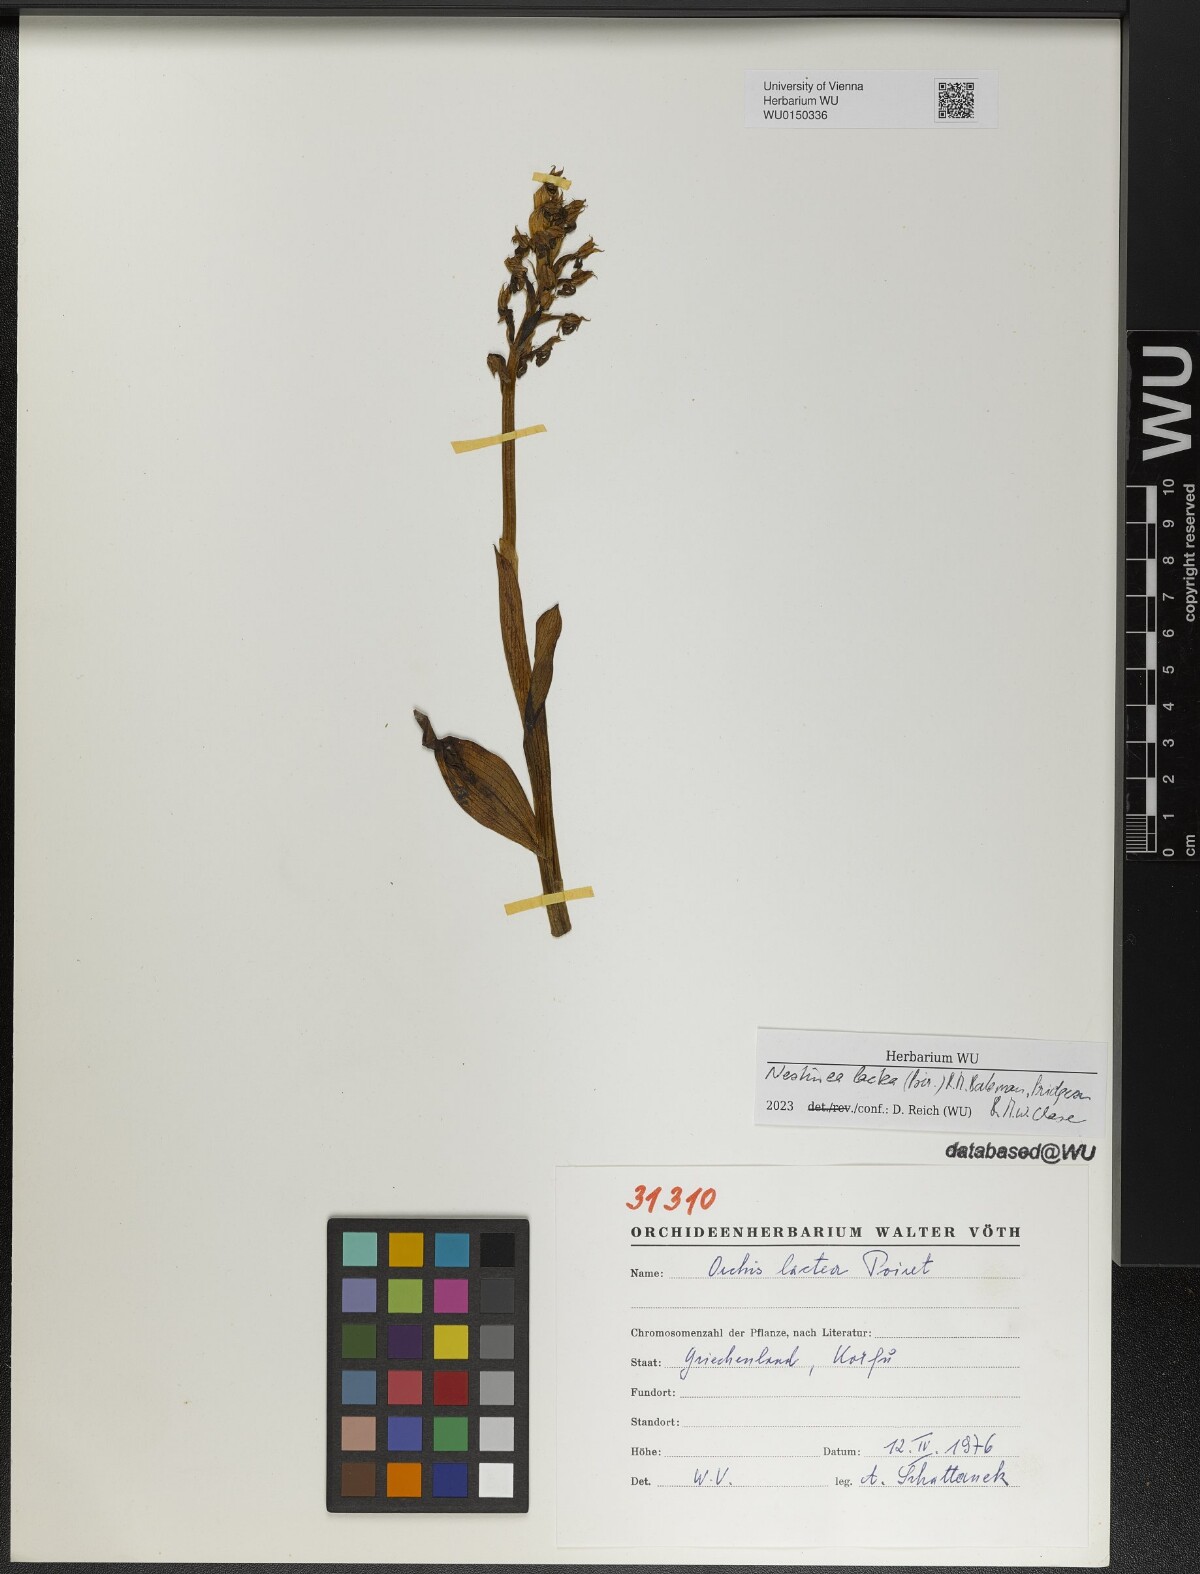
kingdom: Plantae
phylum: Tracheophyta
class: Liliopsida
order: Asparagales
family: Orchidaceae
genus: Neotinea
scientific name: Neotinea lactea
